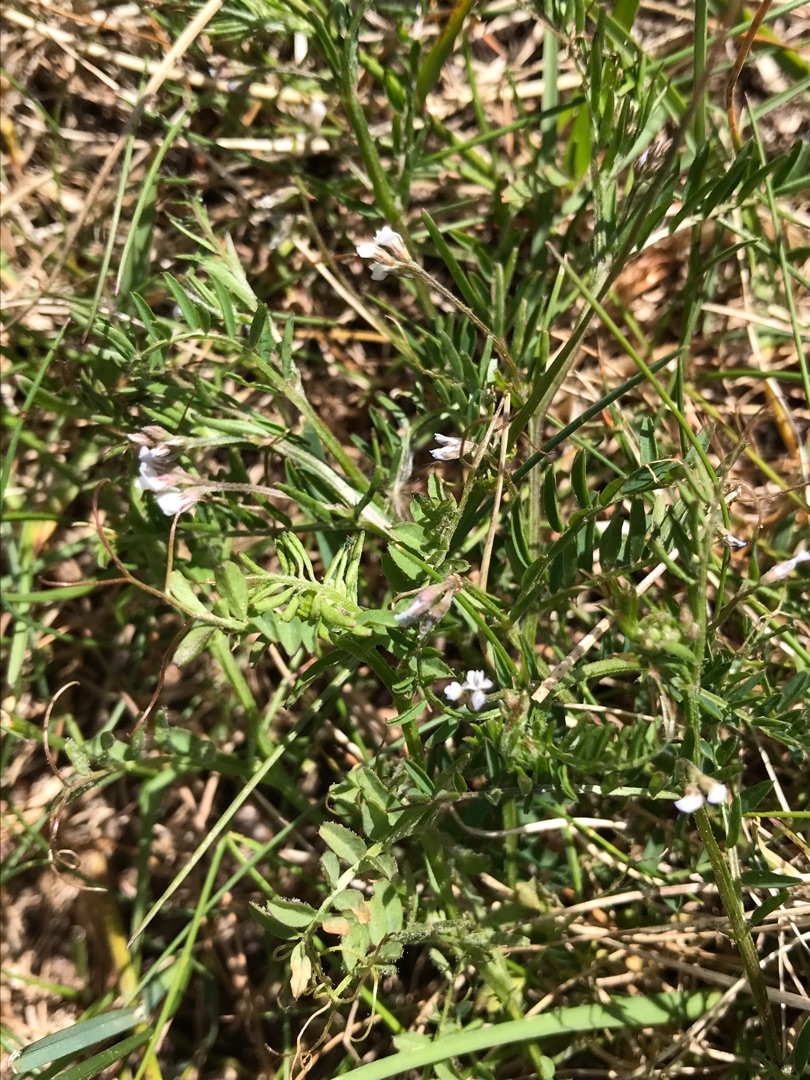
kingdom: Plantae
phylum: Tracheophyta
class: Magnoliopsida
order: Fabales
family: Fabaceae
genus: Vicia
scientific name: Vicia hirsuta
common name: Tofrøet vikke
